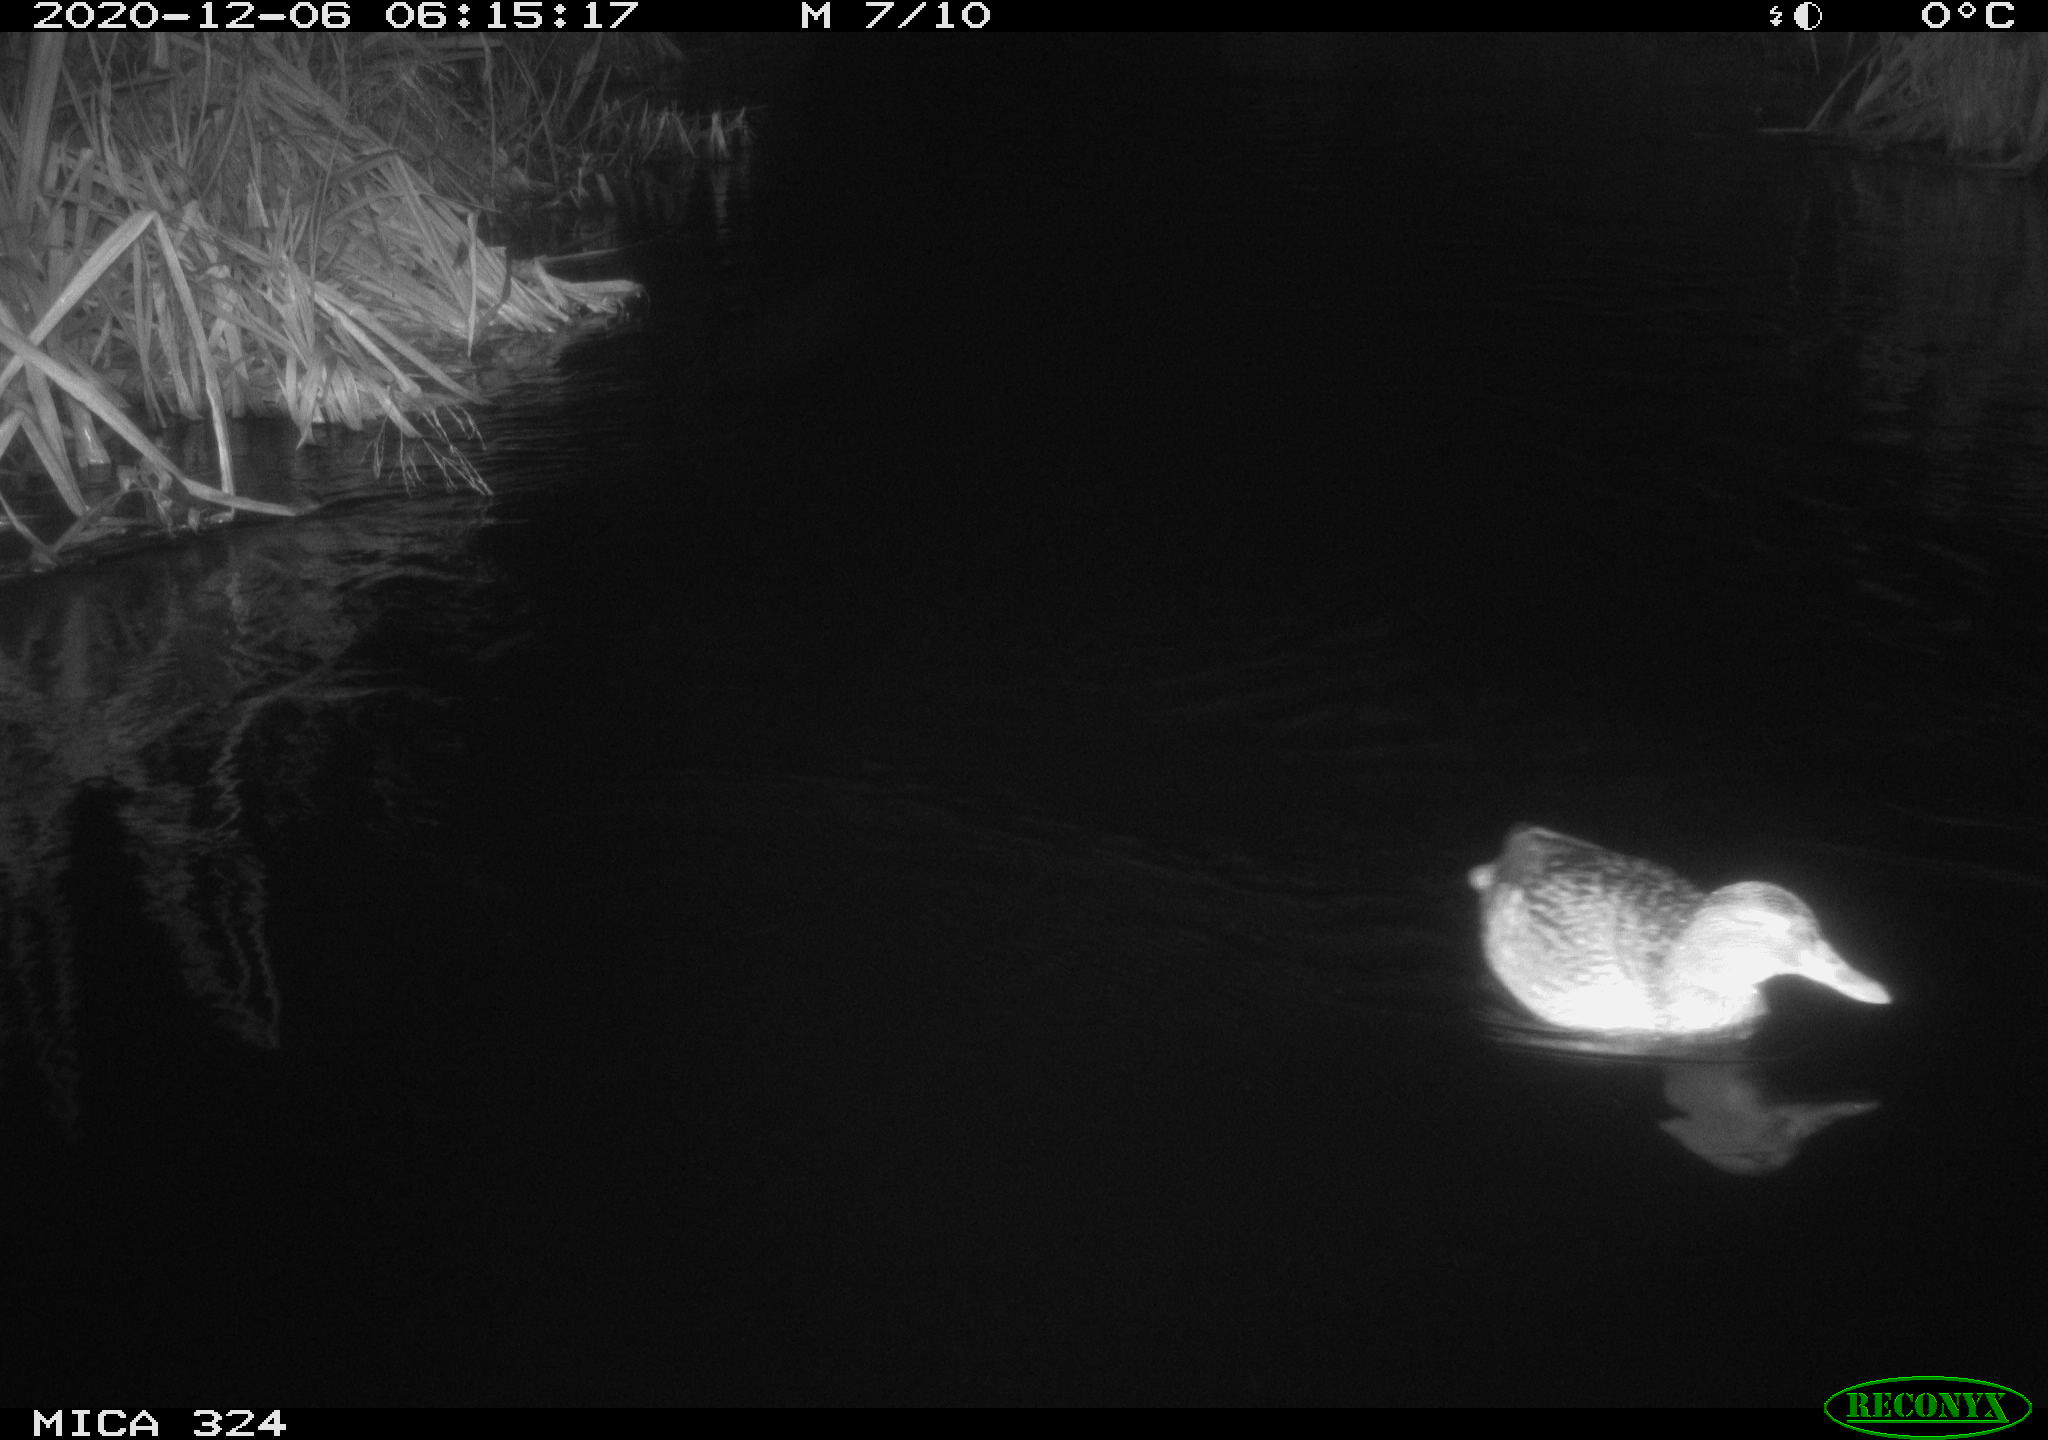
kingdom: Animalia
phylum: Chordata
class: Aves
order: Anseriformes
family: Anatidae
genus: Anas
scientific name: Anas platyrhynchos
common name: Mallard
